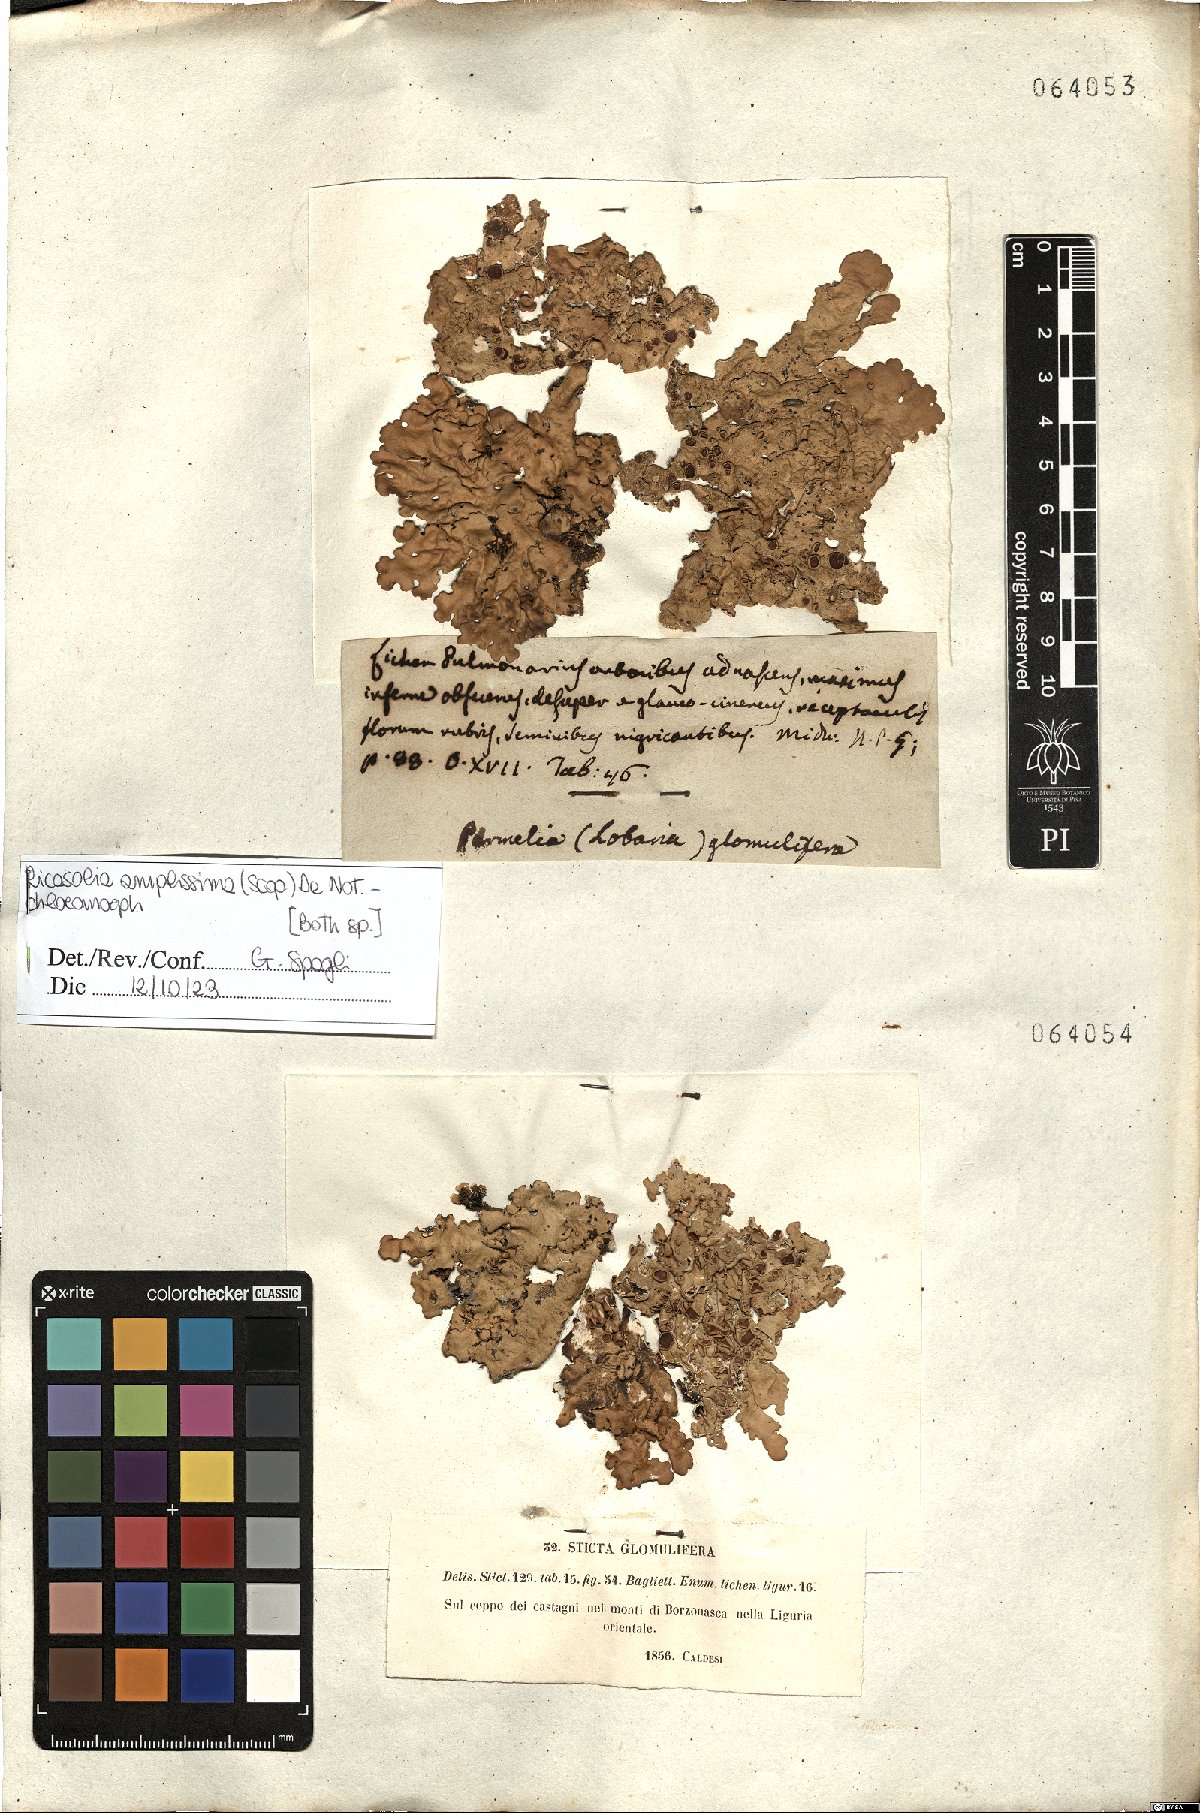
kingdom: Fungi
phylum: Ascomycota
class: Lecanoromycetes
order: Peltigerales
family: Lobariaceae
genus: Ricasolia
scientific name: Ricasolia amplissima
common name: Giant candlewax lichen
